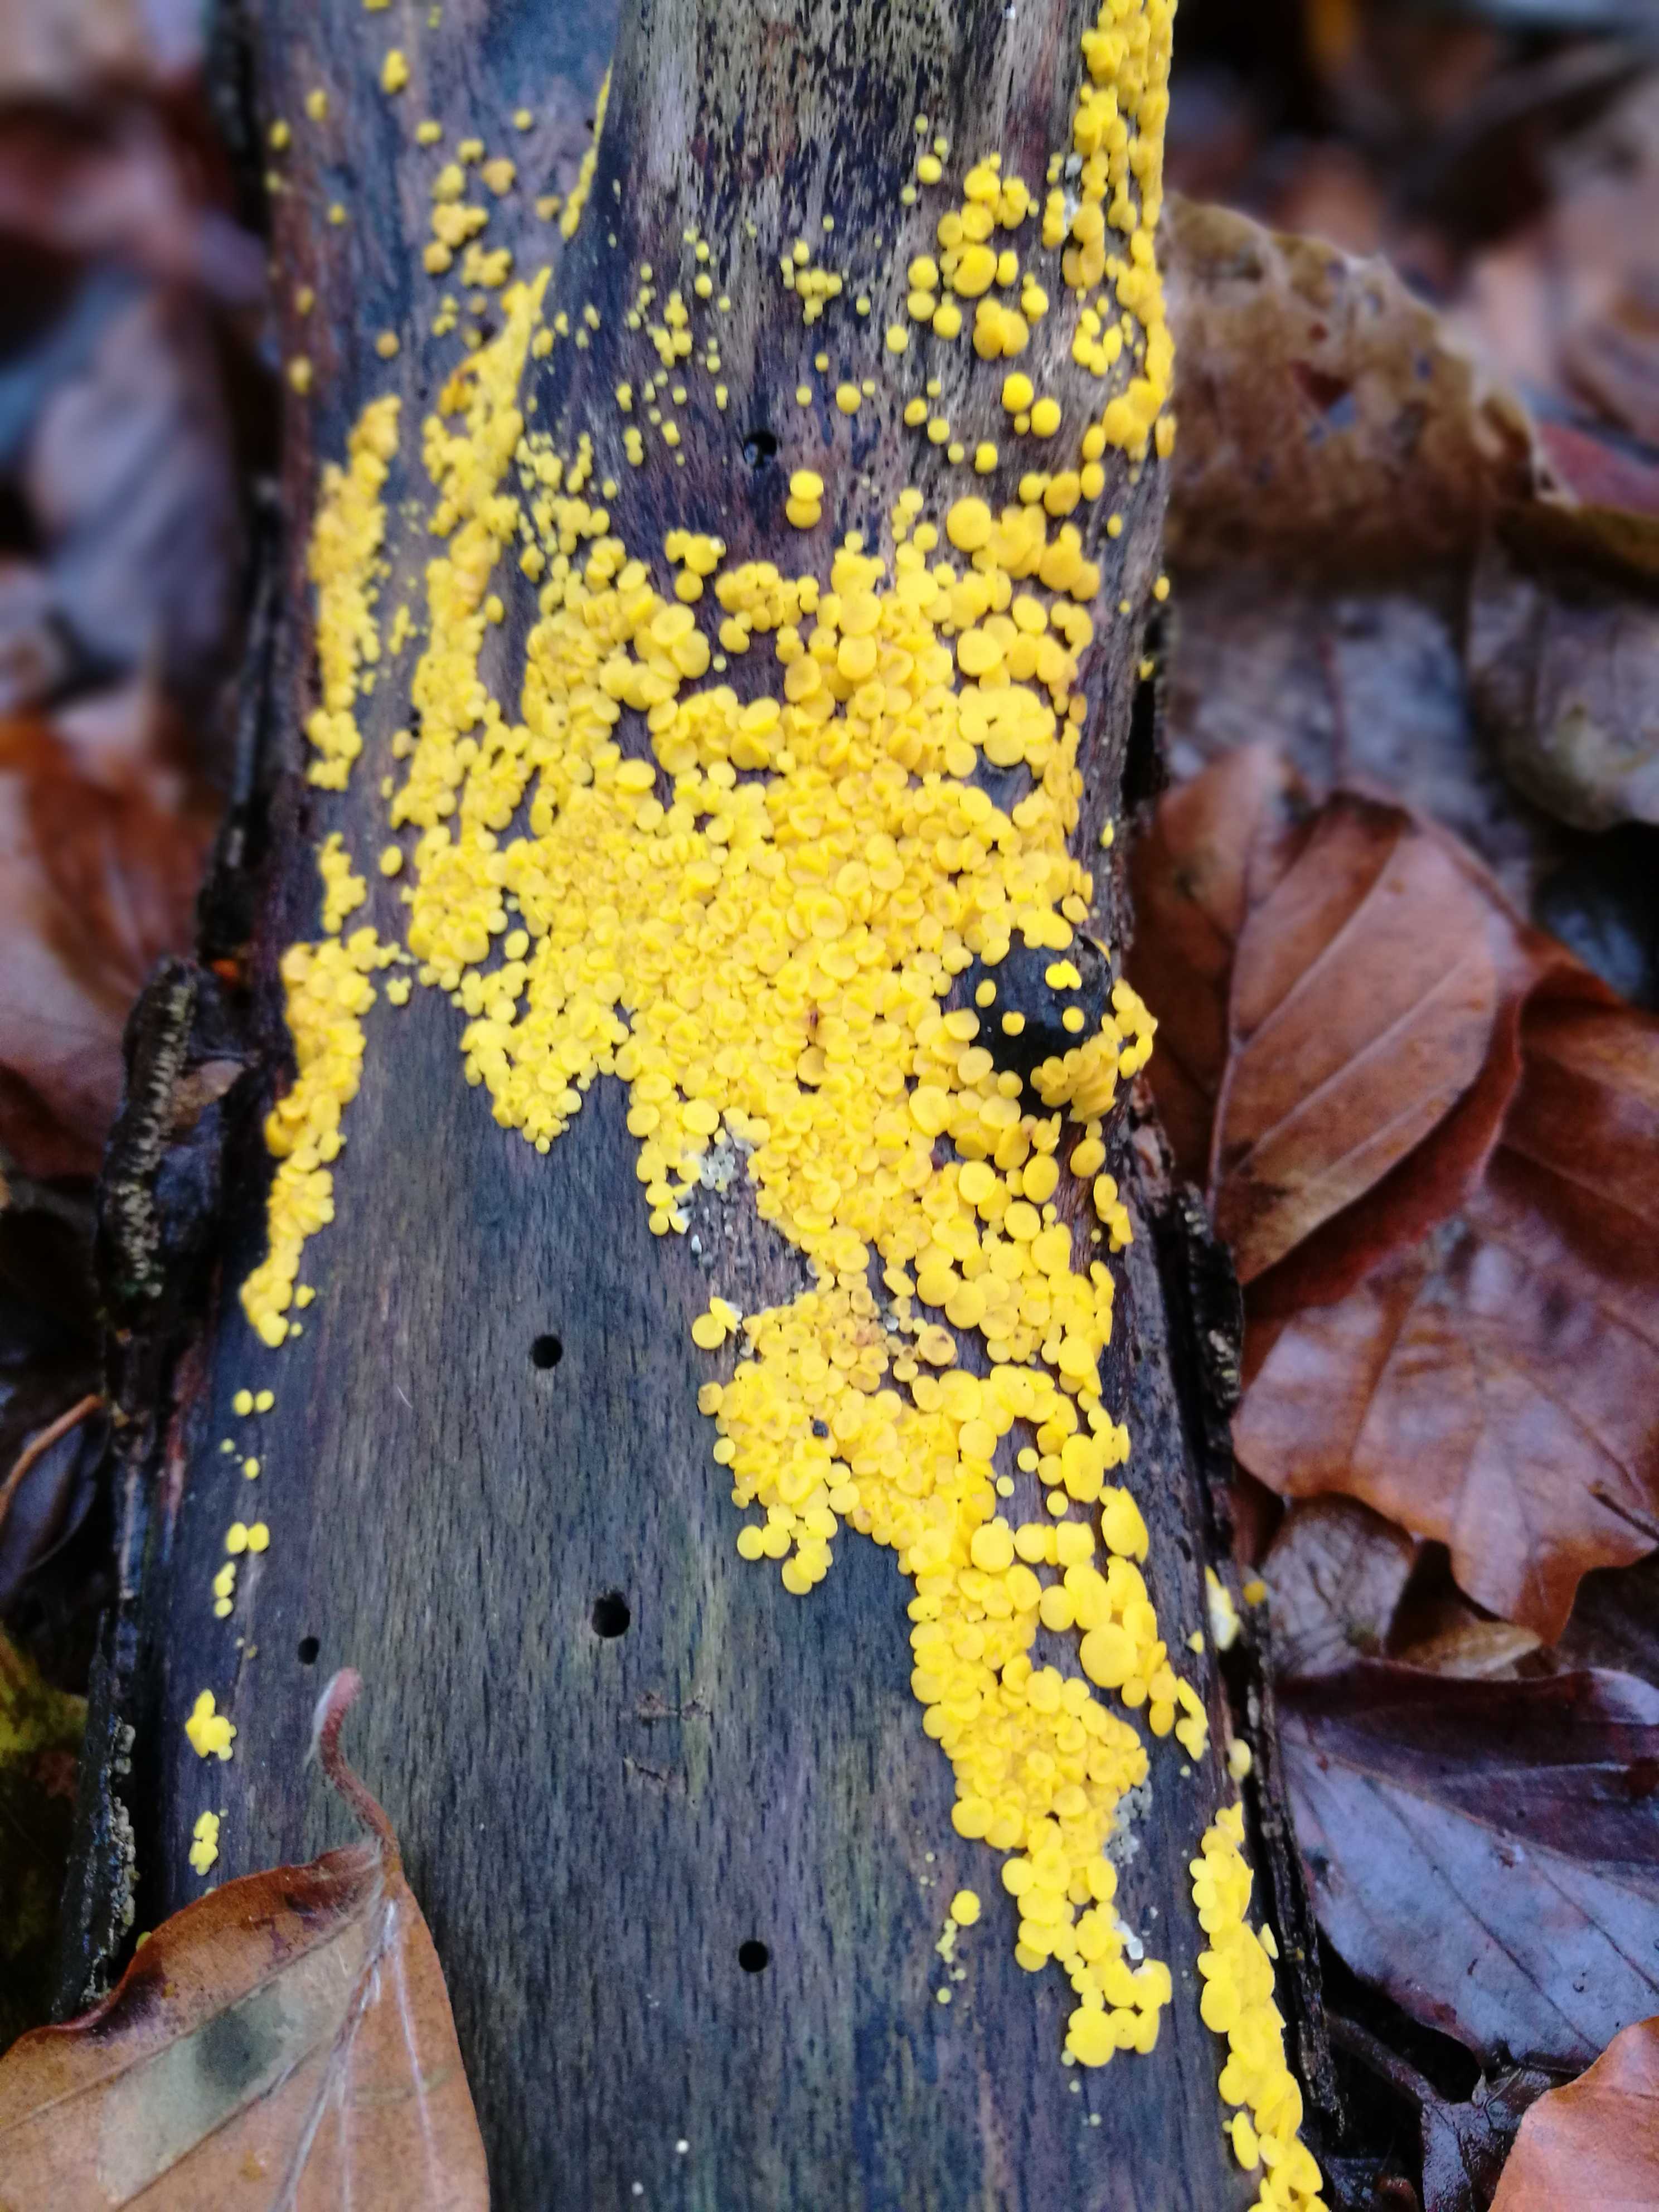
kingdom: Fungi
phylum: Ascomycota
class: Leotiomycetes
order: Helotiales
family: Pezizellaceae
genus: Calycina
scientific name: Calycina citrina
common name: almindelig gulskive
